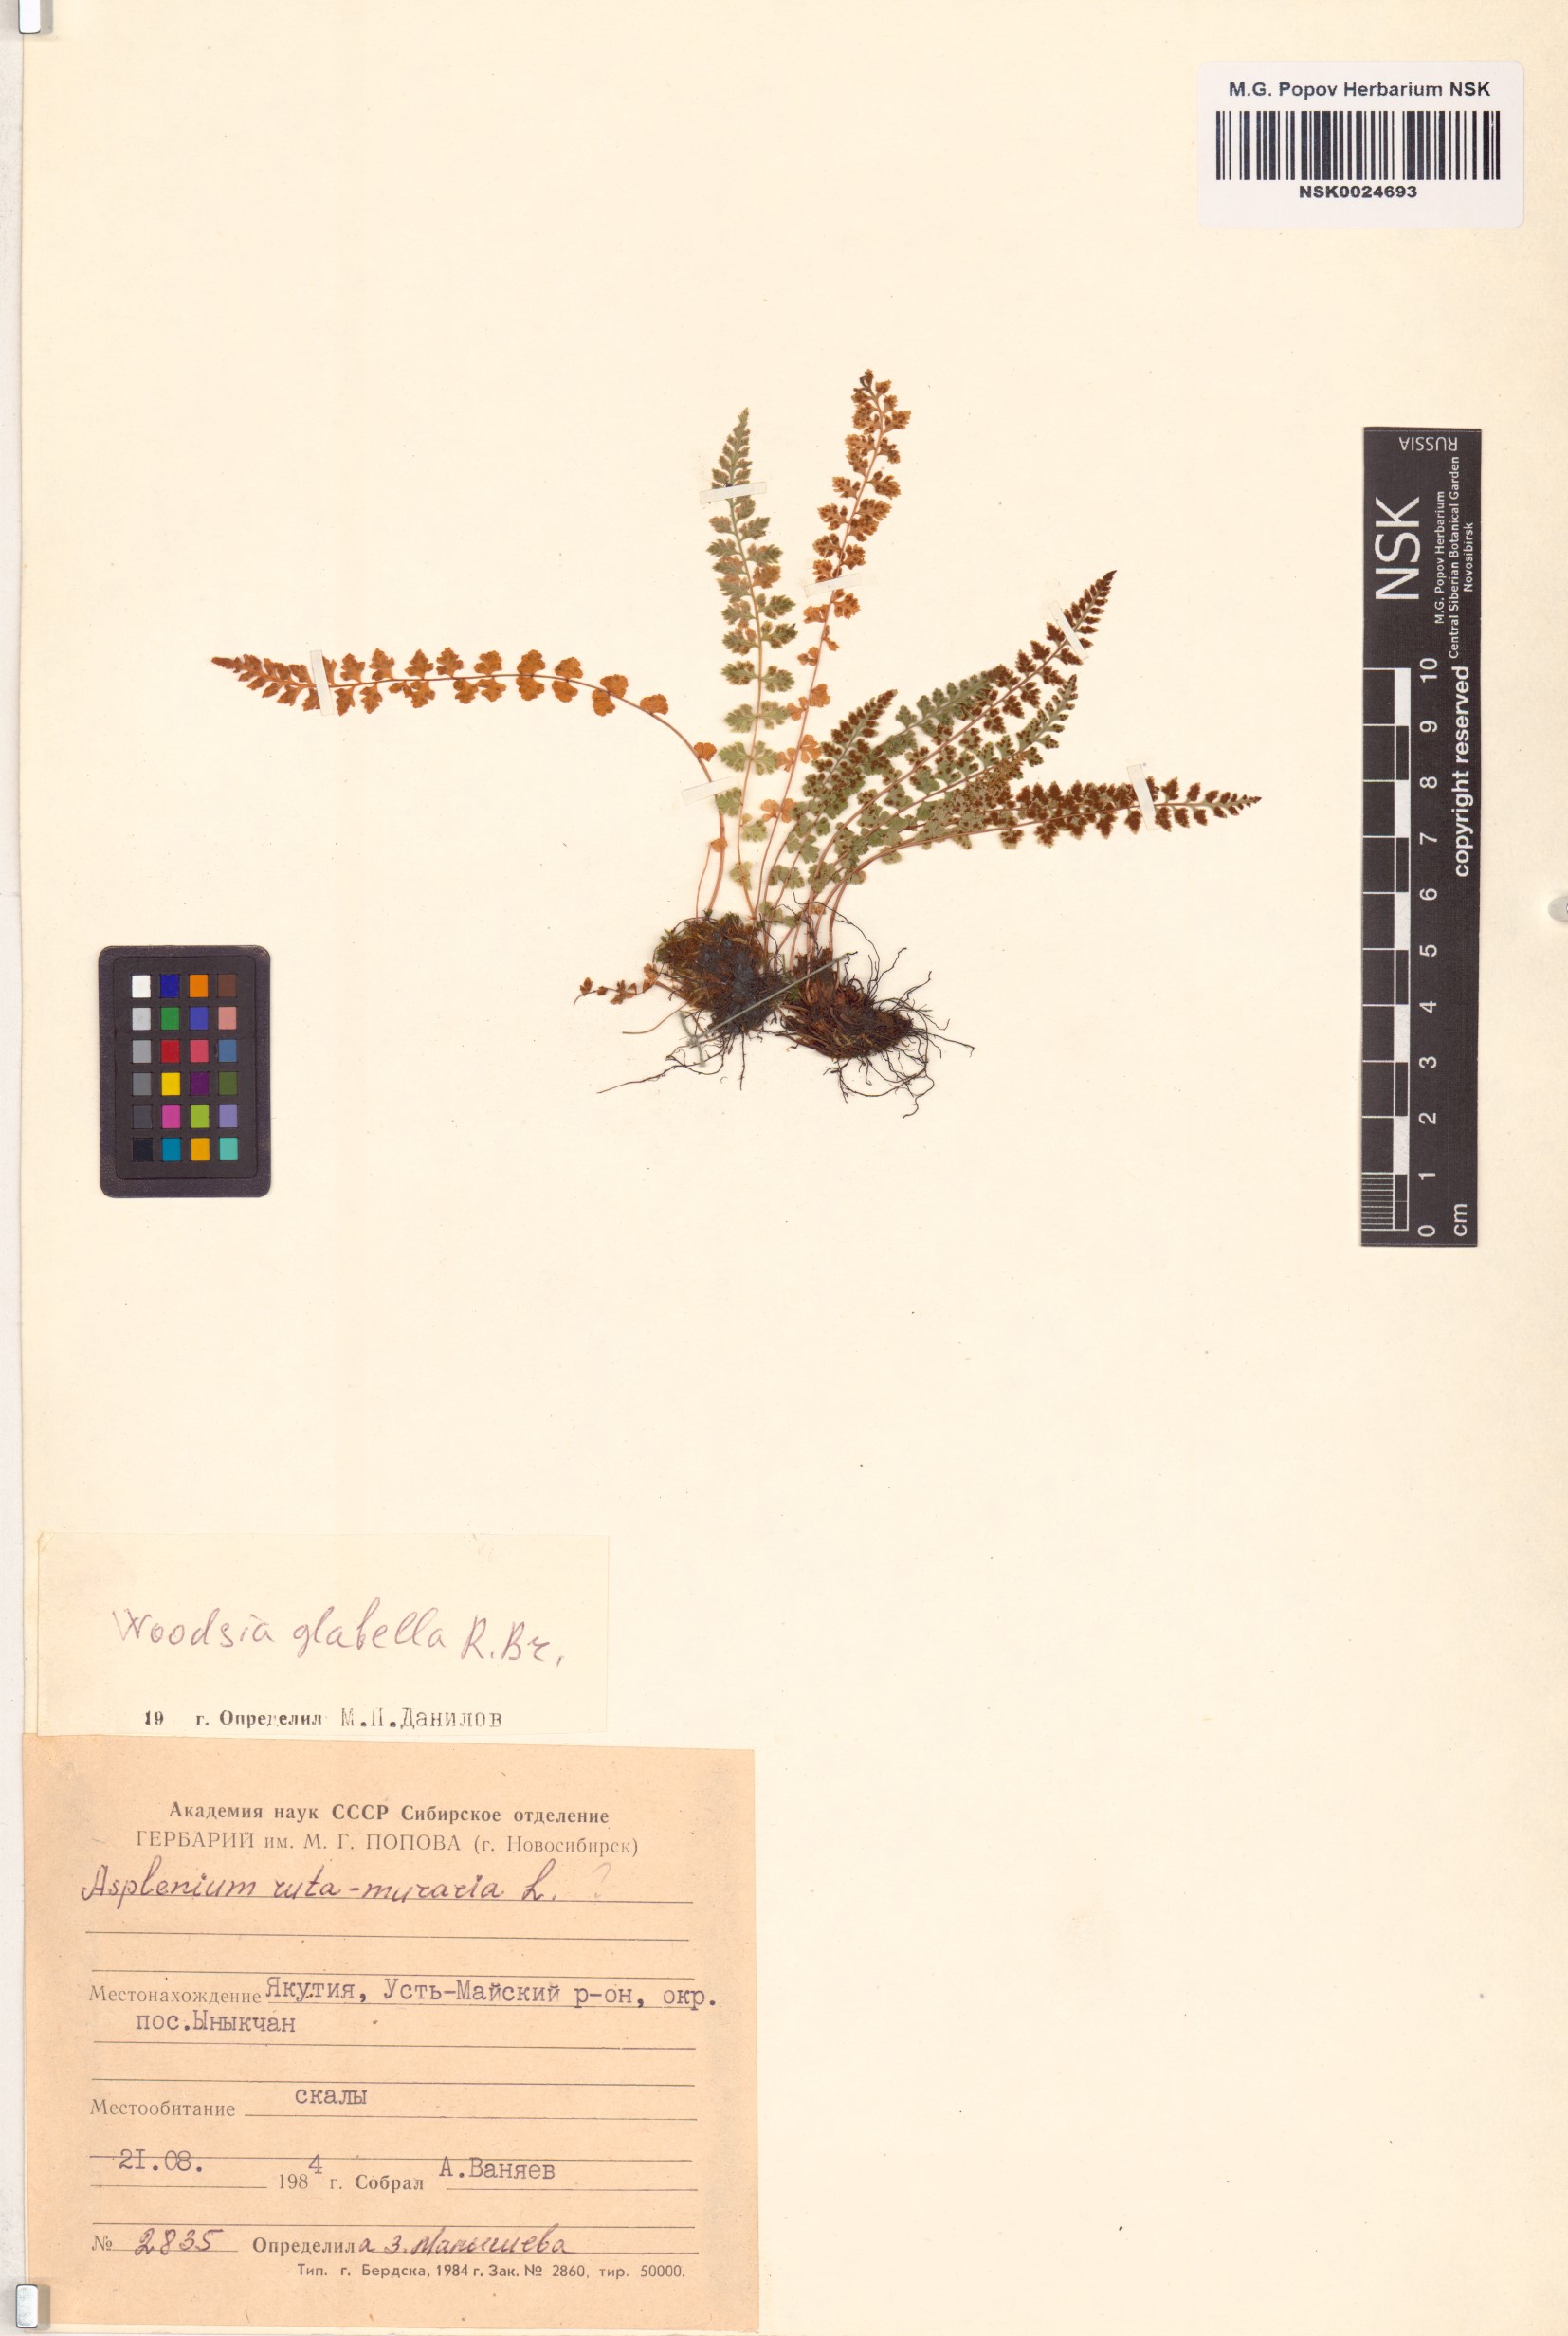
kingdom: Plantae
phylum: Tracheophyta
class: Polypodiopsida
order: Polypodiales
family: Woodsiaceae
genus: Woodsia
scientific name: Woodsia glabella
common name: Smooth woodsia
